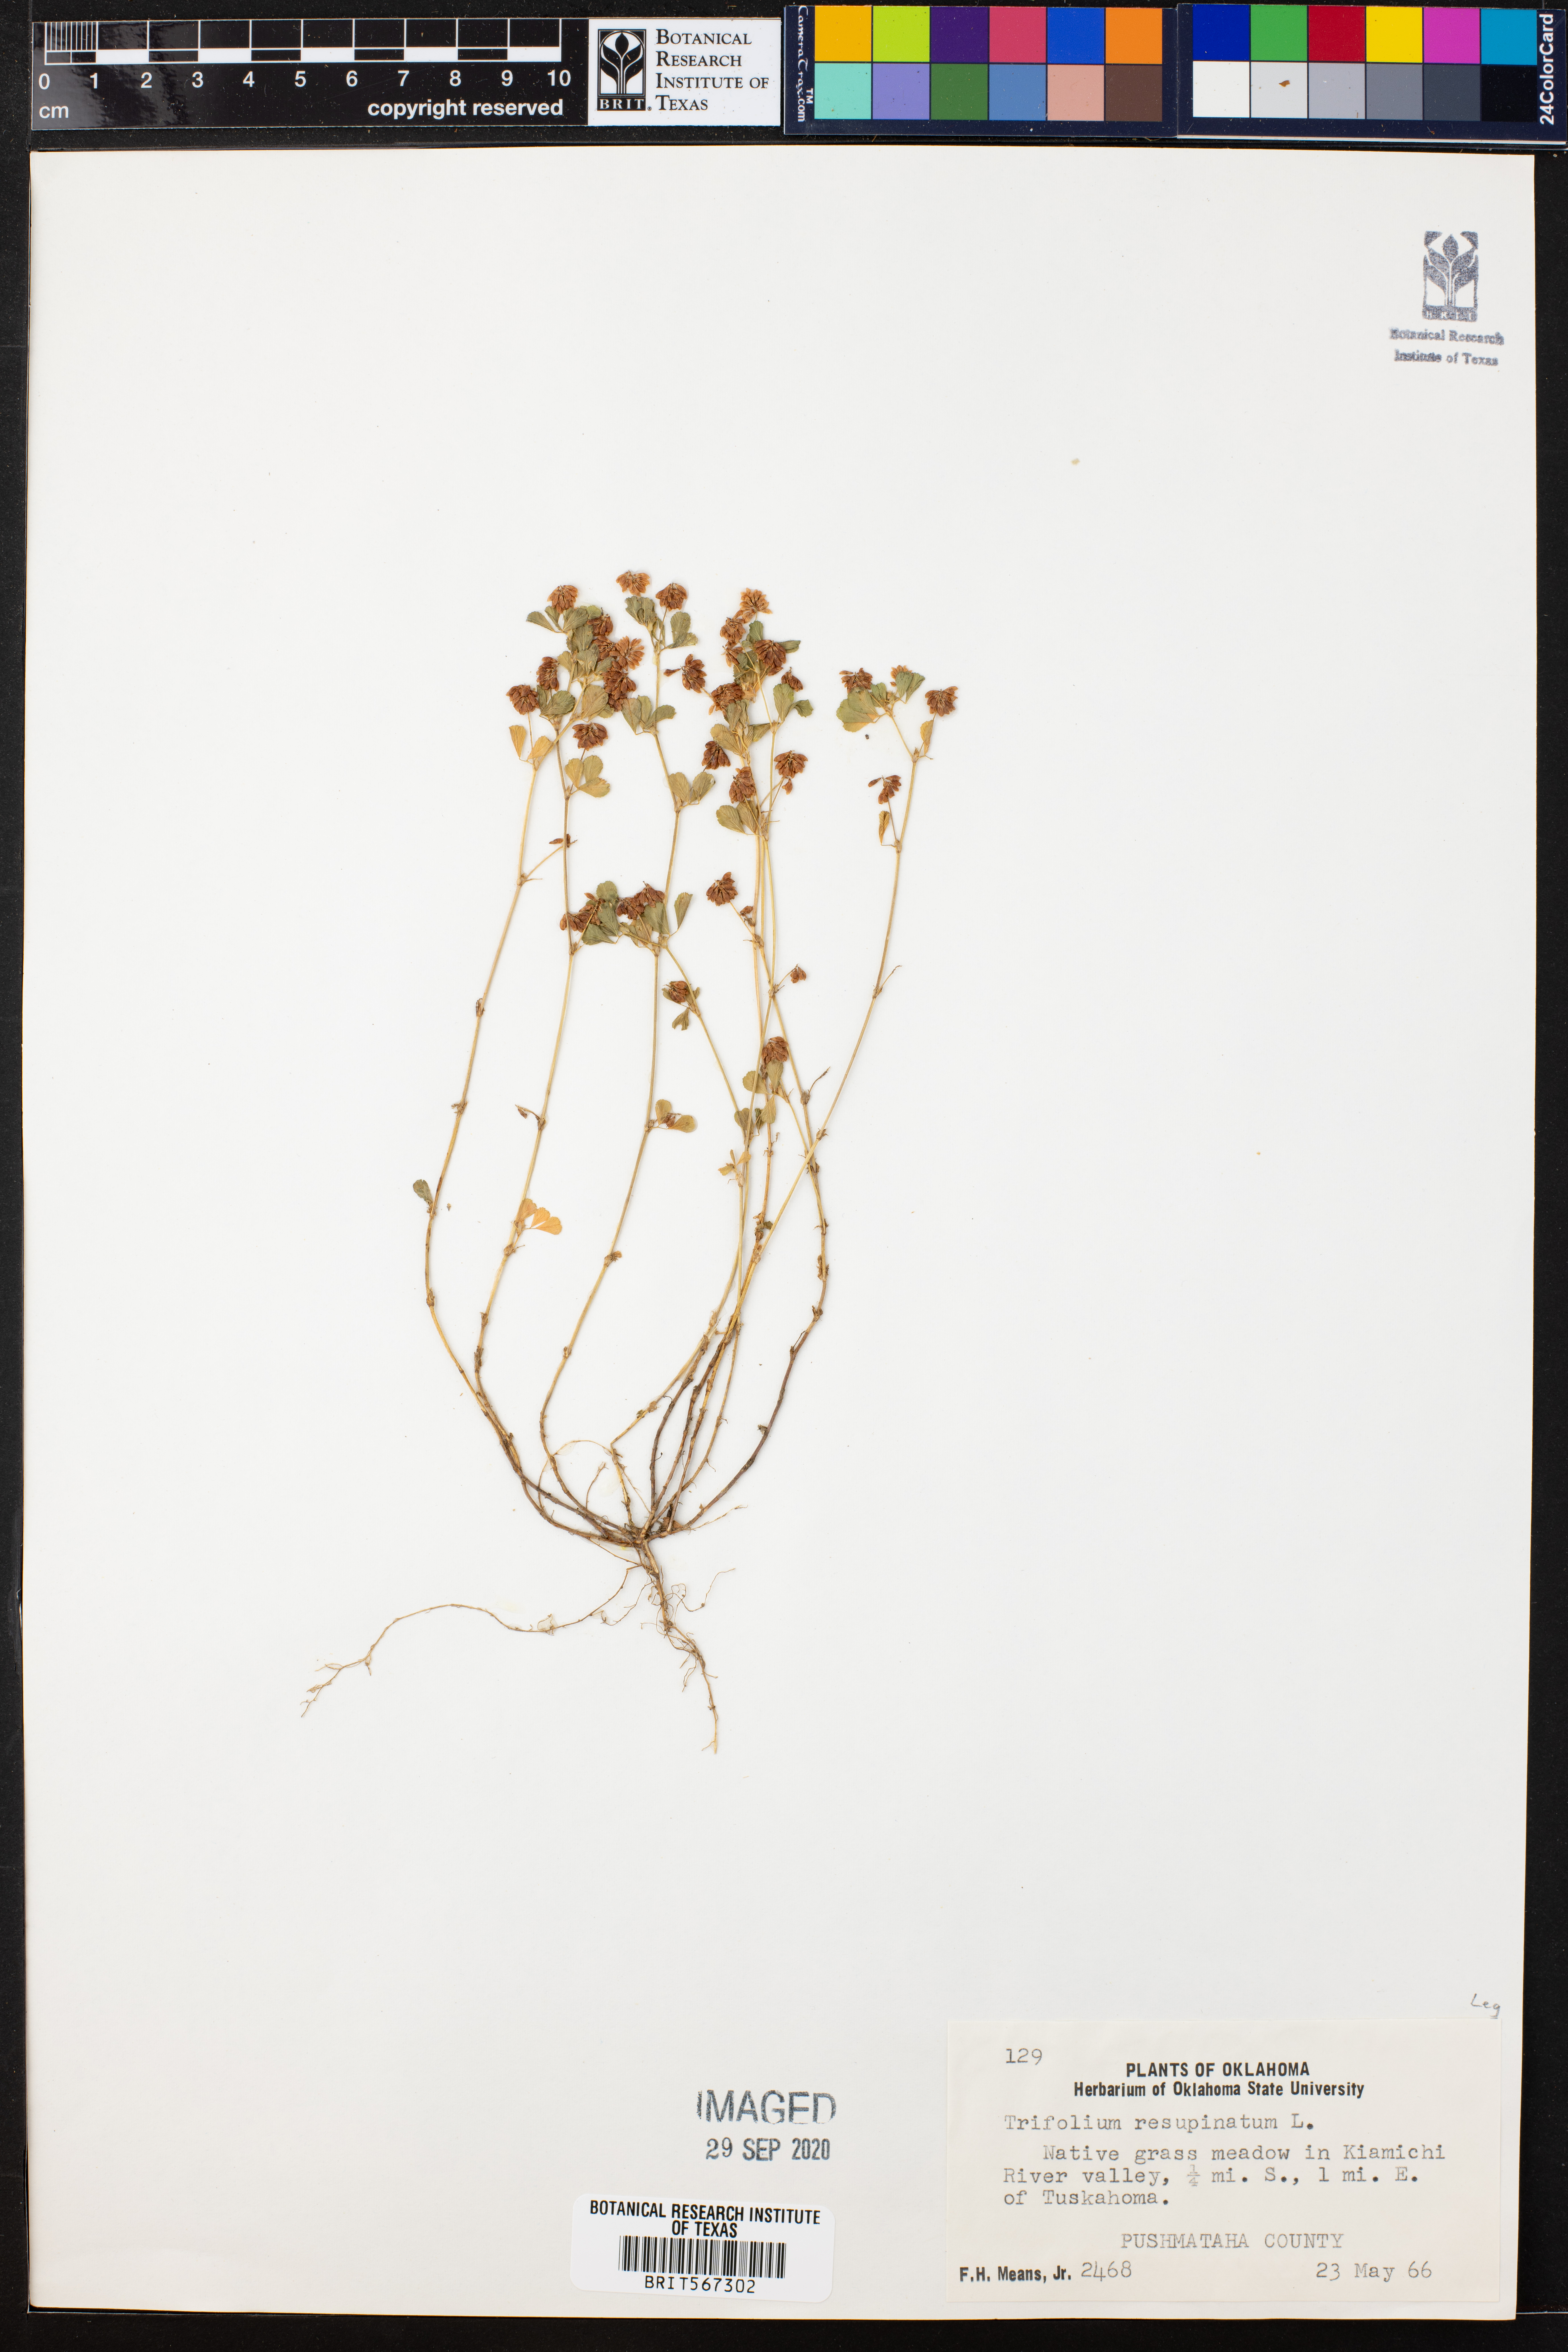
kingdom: Plantae
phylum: Tracheophyta
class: Magnoliopsida
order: Fabales
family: Fabaceae
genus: Trifolium
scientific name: Trifolium resupinatum
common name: Reversed clover
